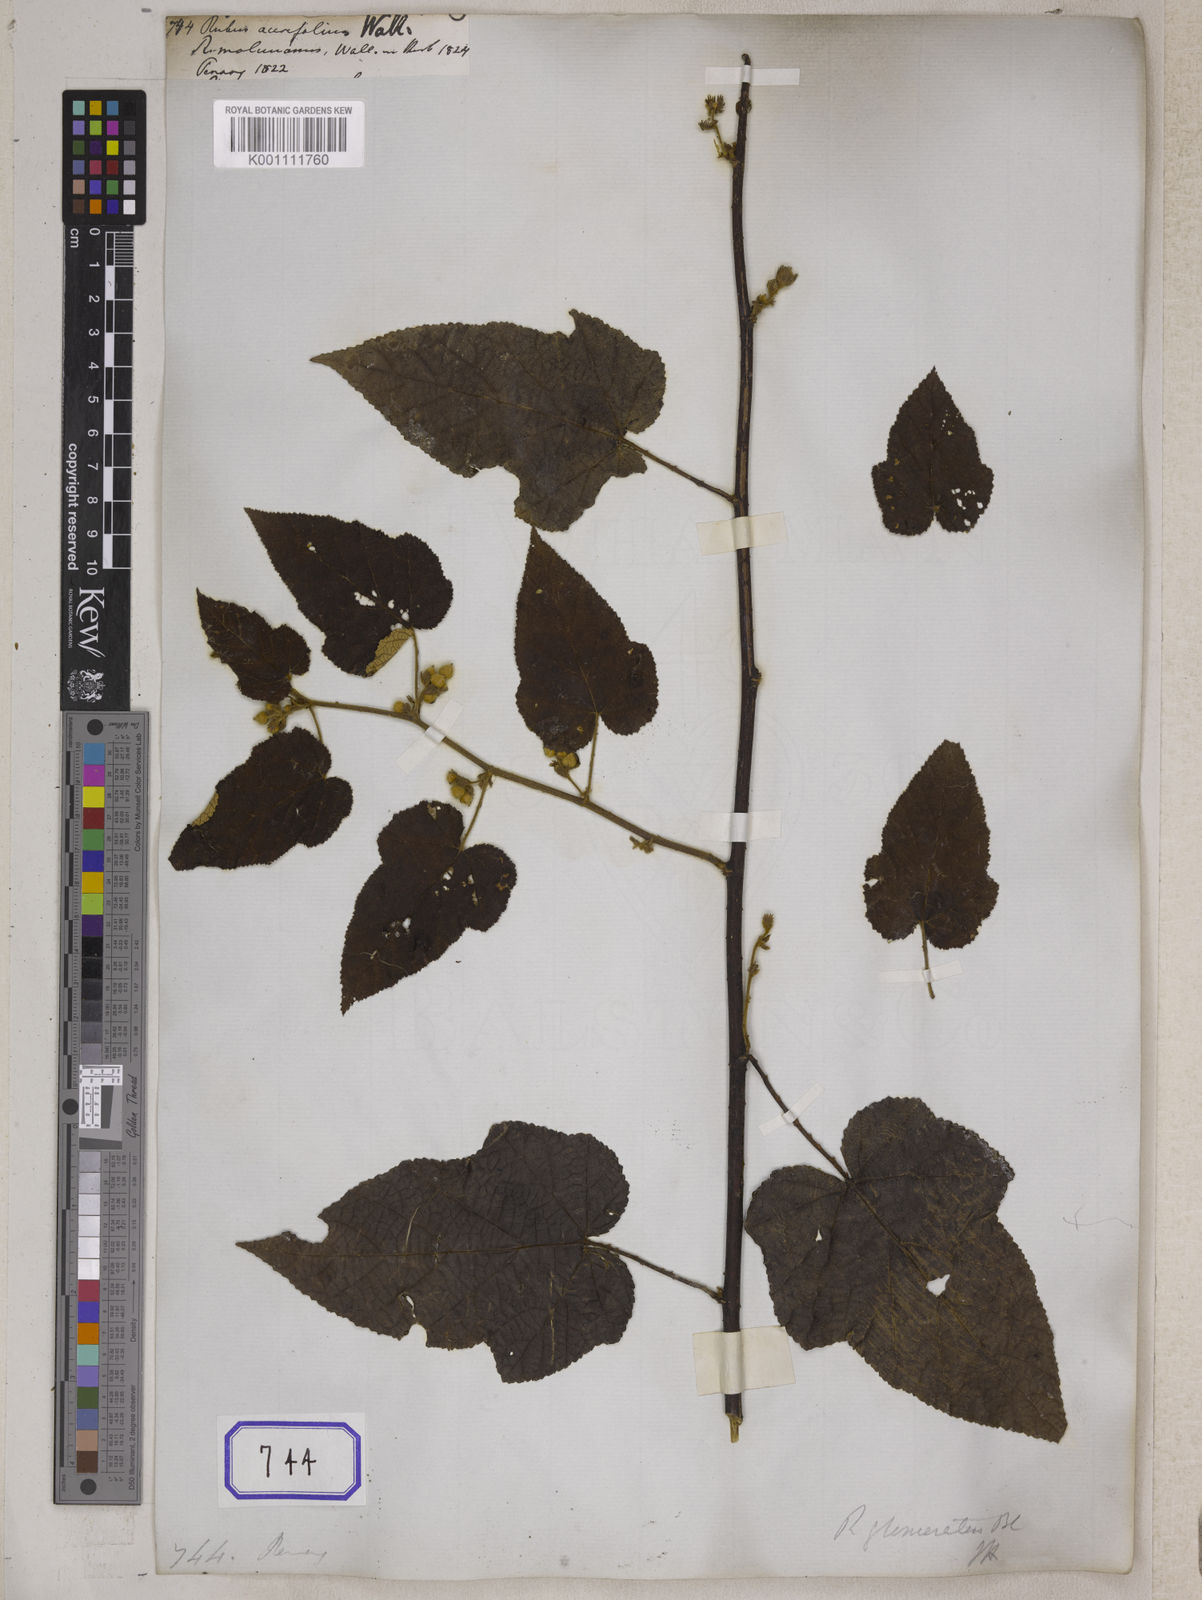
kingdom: Plantae
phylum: Tracheophyta
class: Magnoliopsida
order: Rosales
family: Rosaceae
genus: Rubus
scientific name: Rubus
